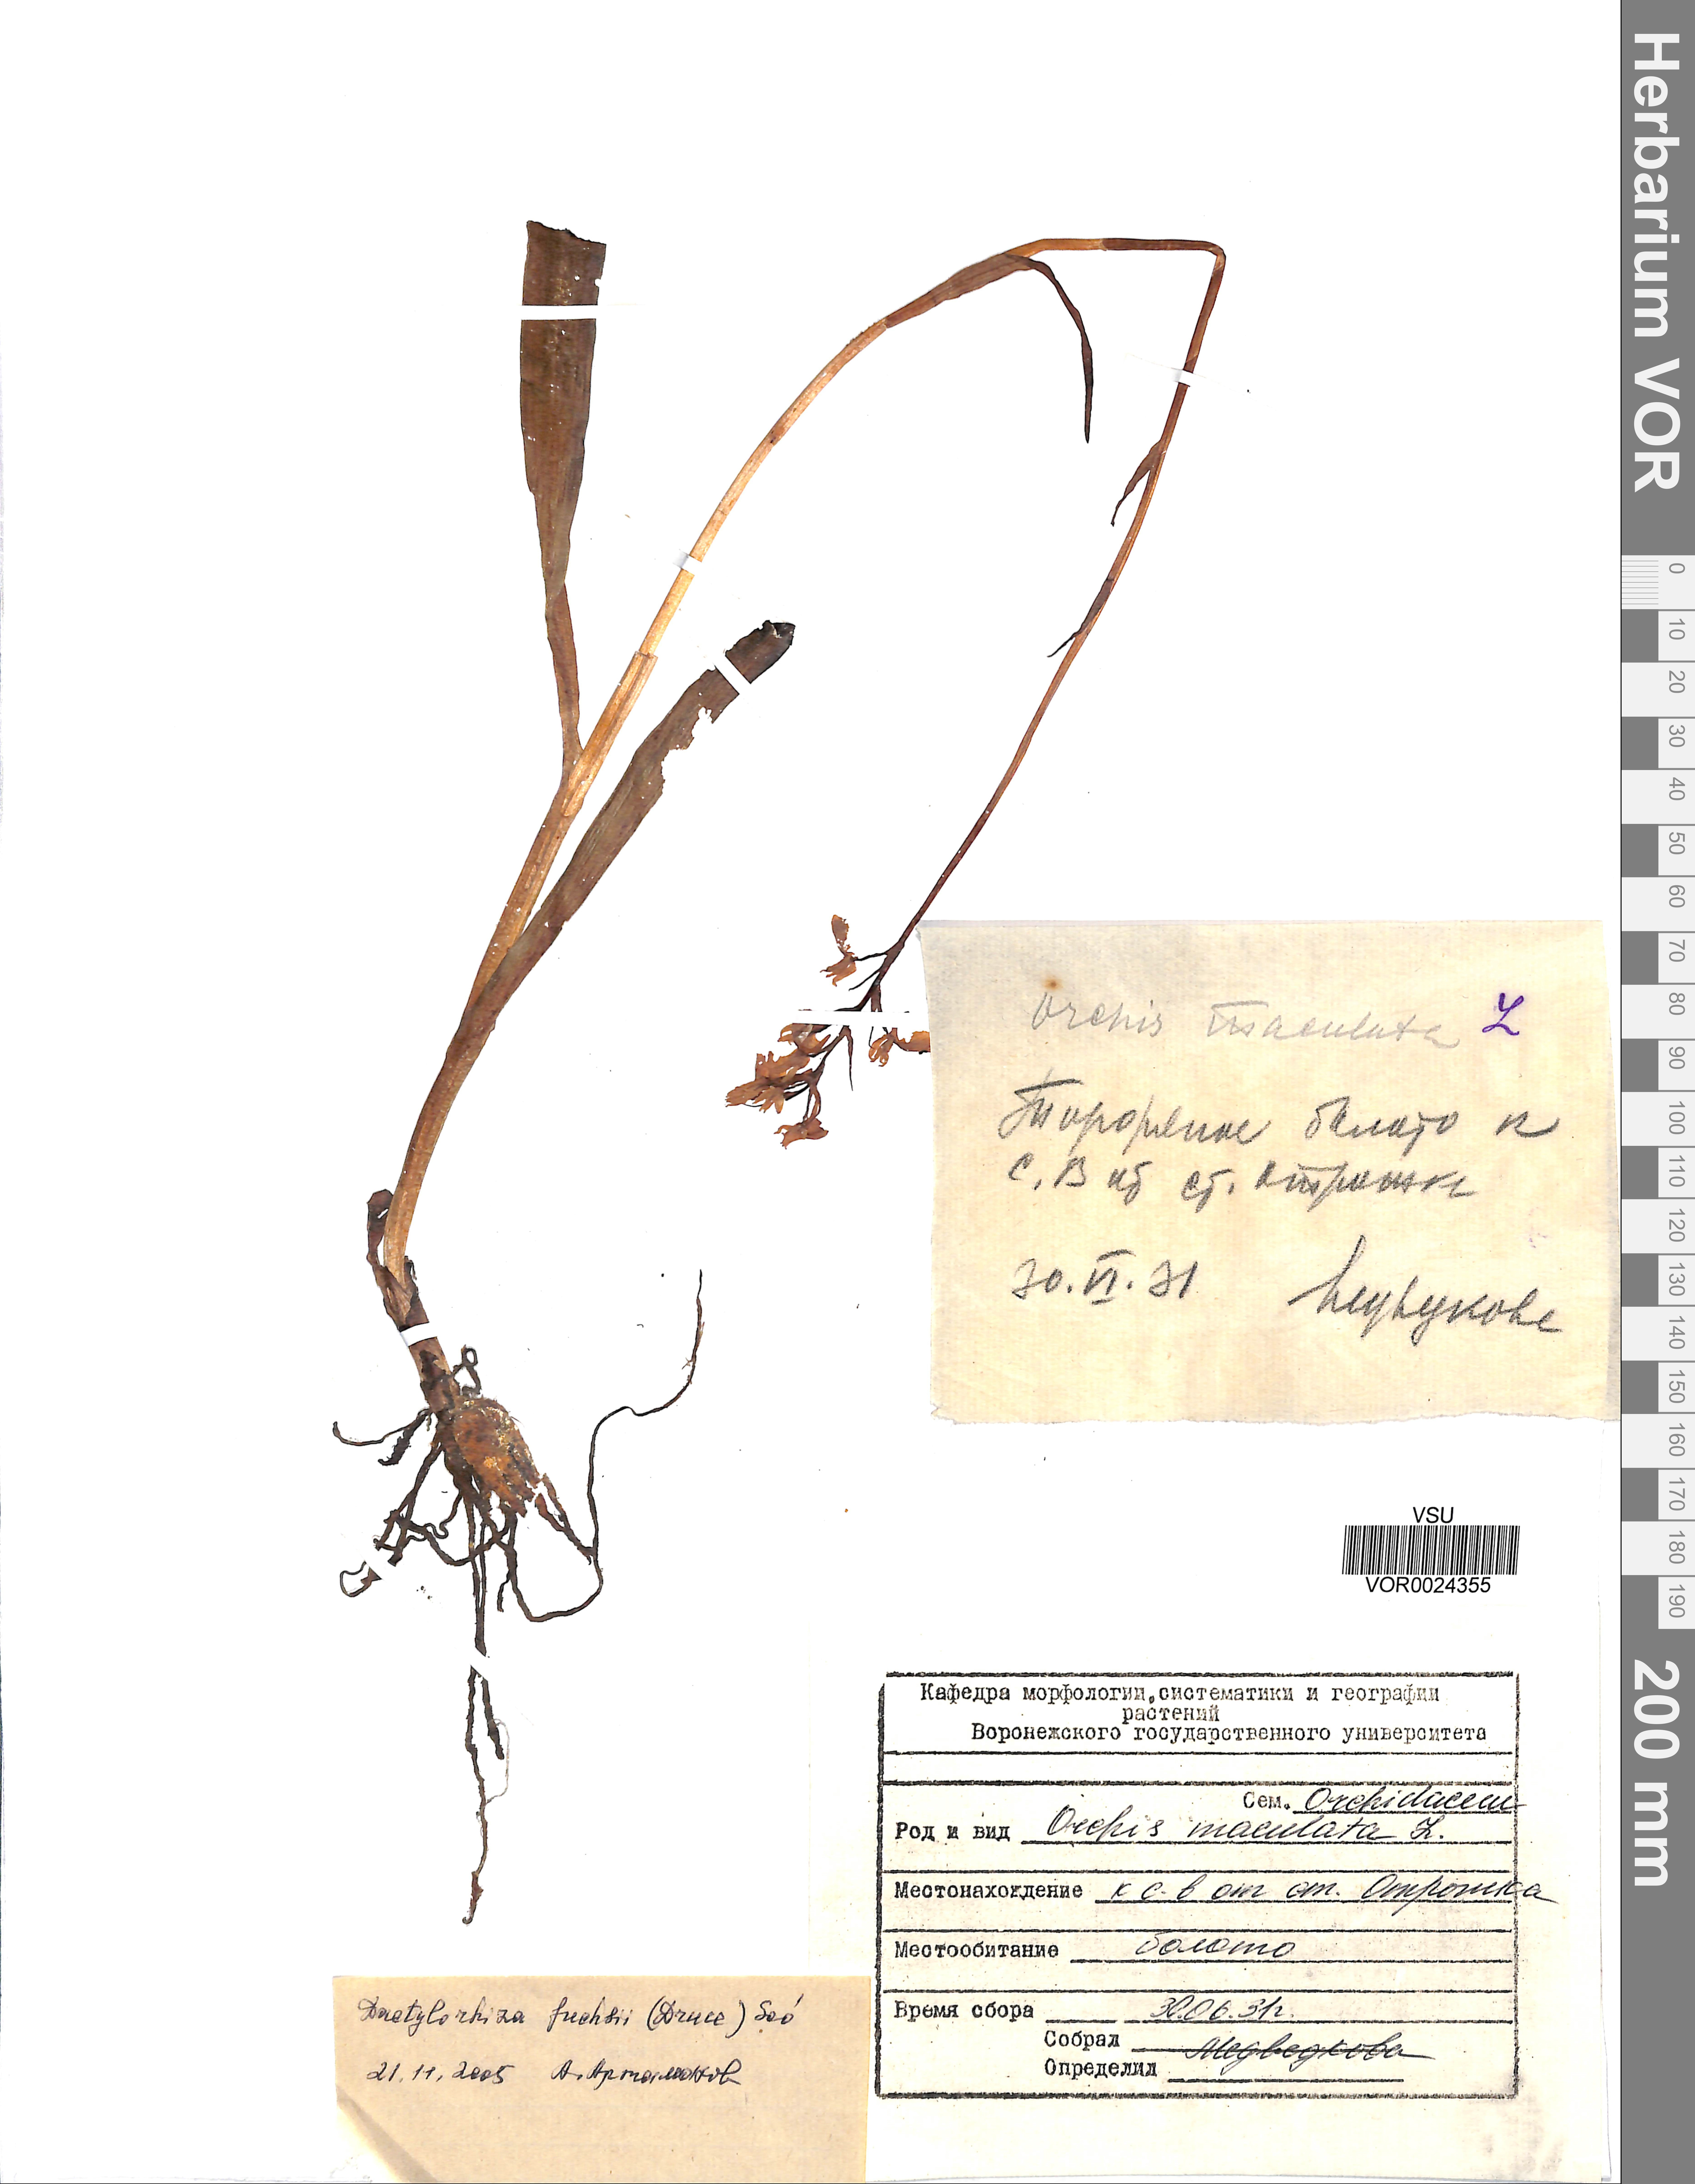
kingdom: Plantae
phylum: Tracheophyta
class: Liliopsida
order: Asparagales
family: Orchidaceae
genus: Dactylorhiza
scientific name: Dactylorhiza maculata
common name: Heath spotted-orchid
